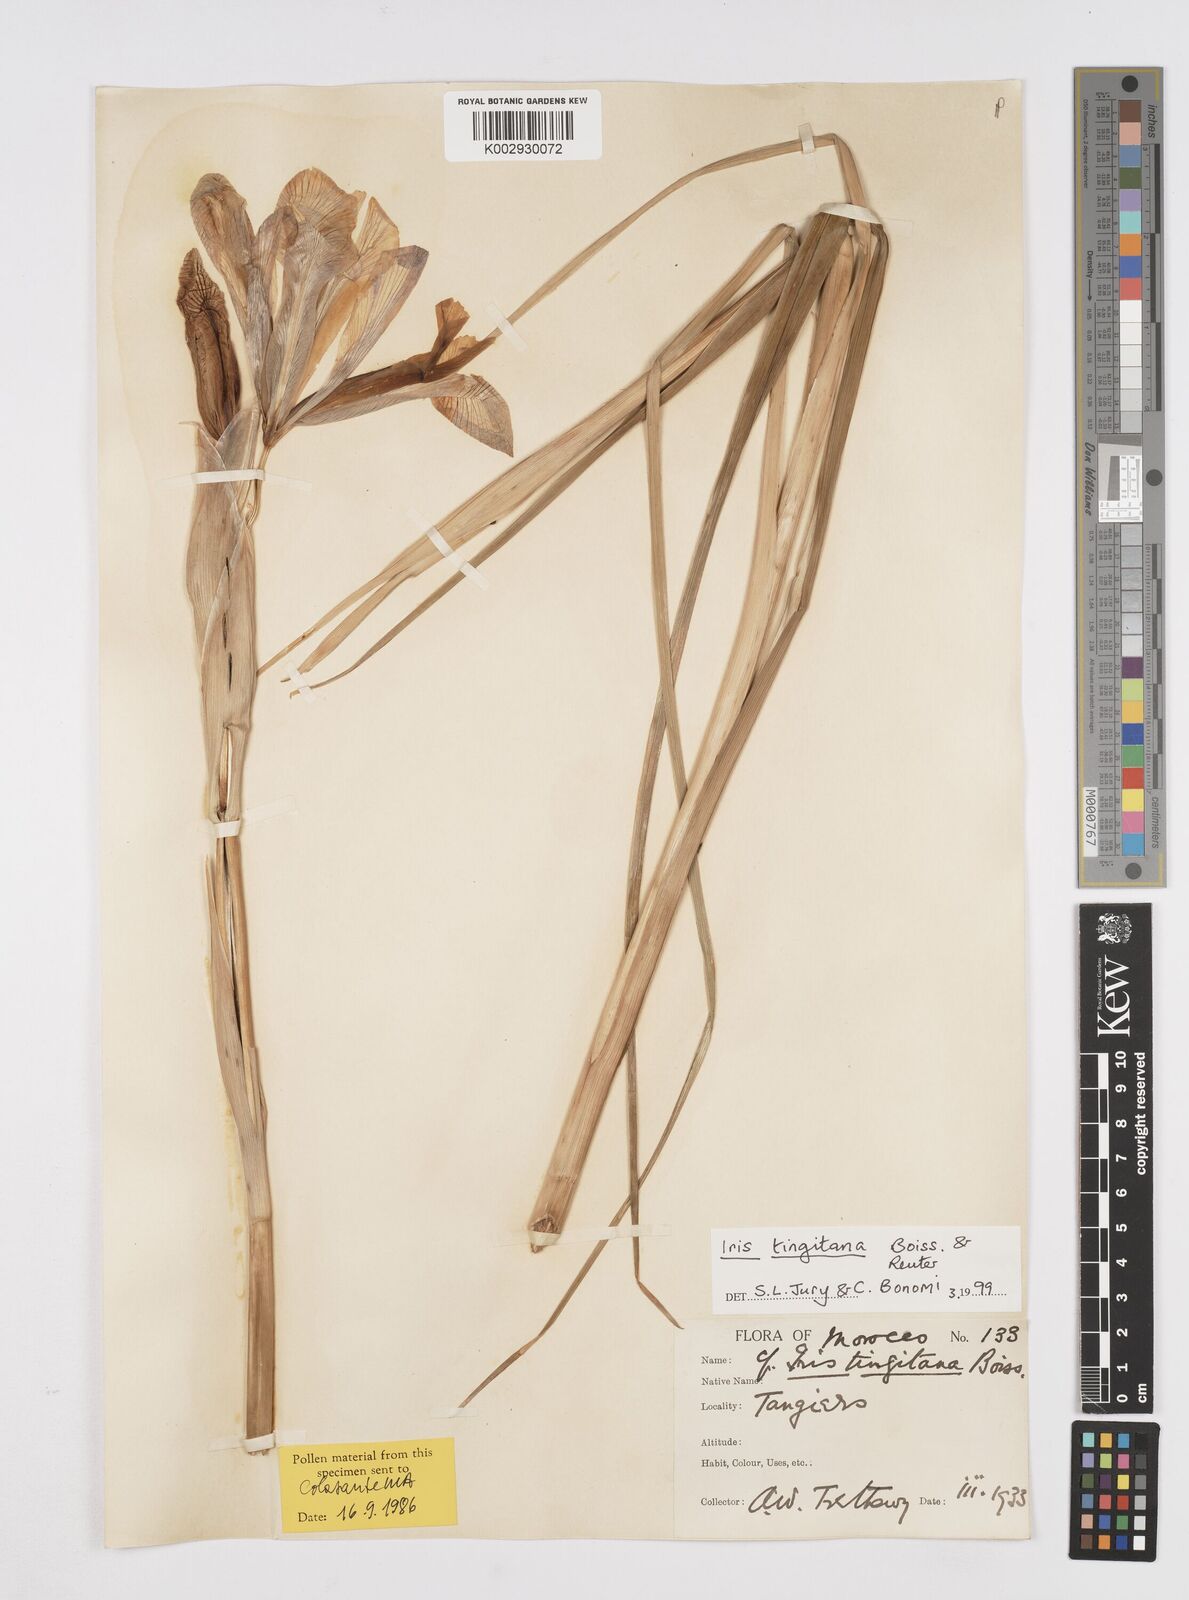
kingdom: Plantae
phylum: Tracheophyta
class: Liliopsida
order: Asparagales
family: Iridaceae
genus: Iris
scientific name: Iris tingitana
